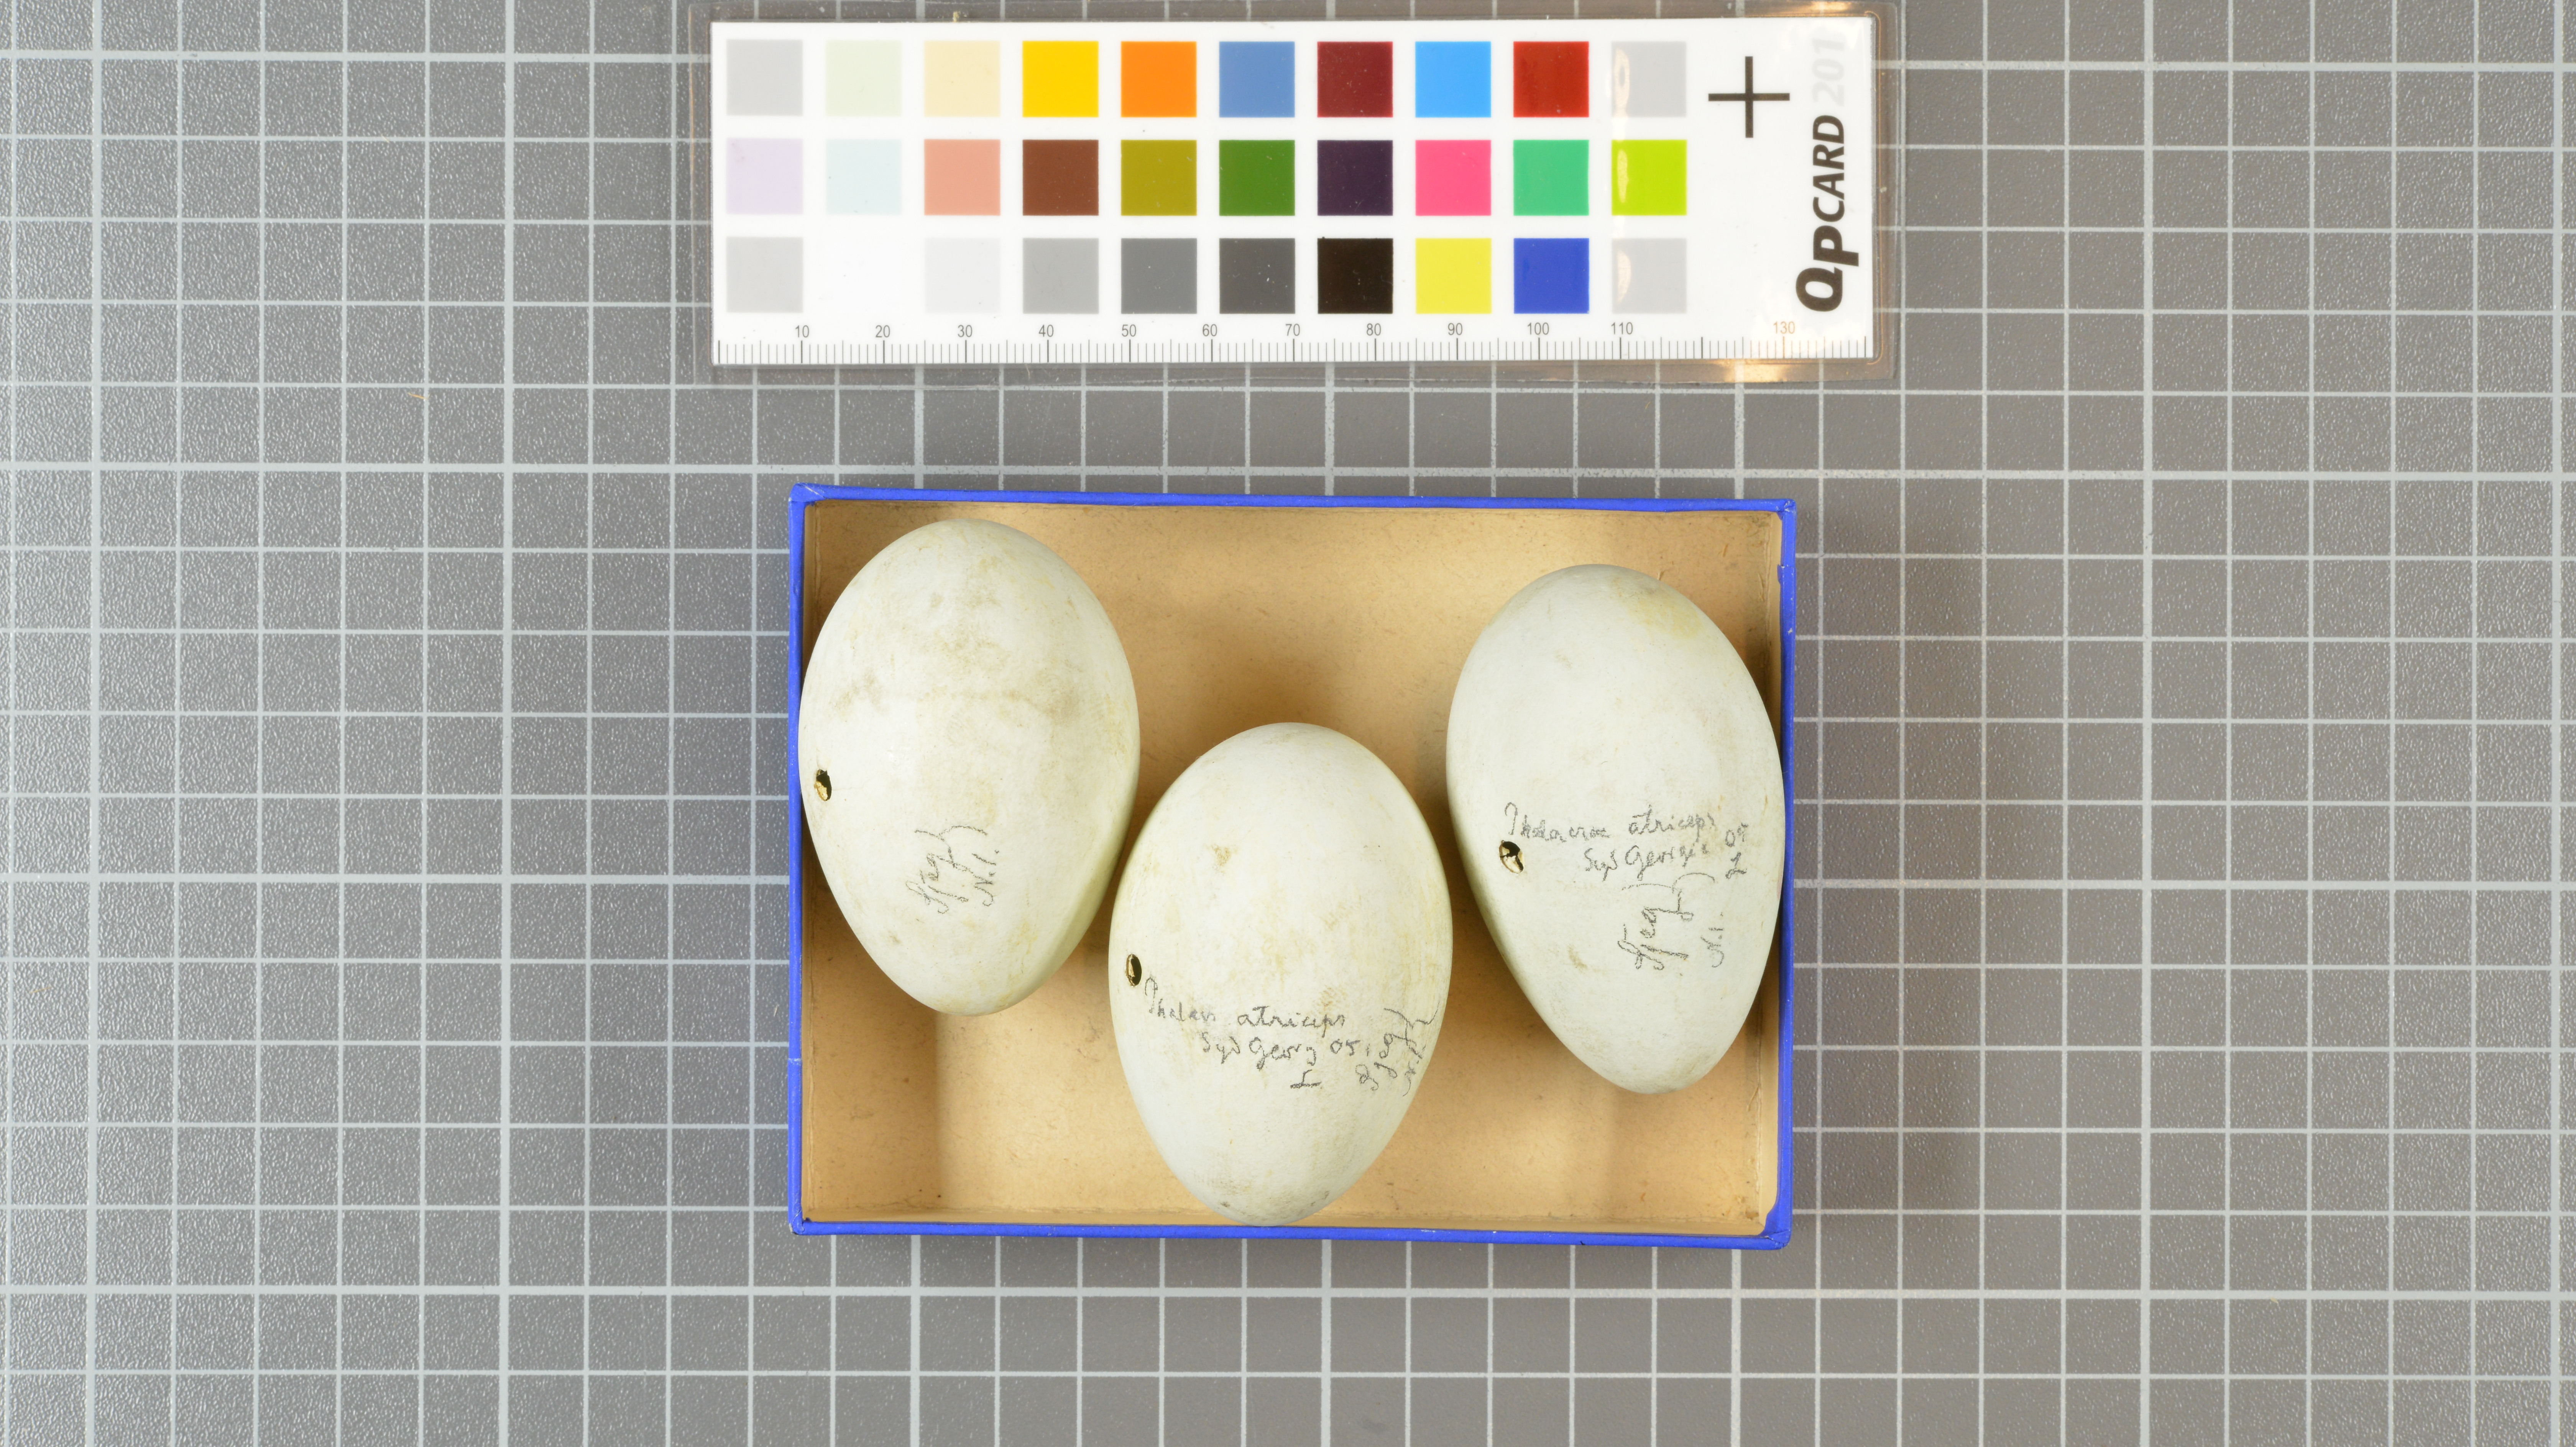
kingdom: Animalia
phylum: Chordata
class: Aves
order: Suliformes
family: Phalacrocoracidae
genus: Leucocarbo
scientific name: Leucocarbo atriceps
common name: Imperial shag
